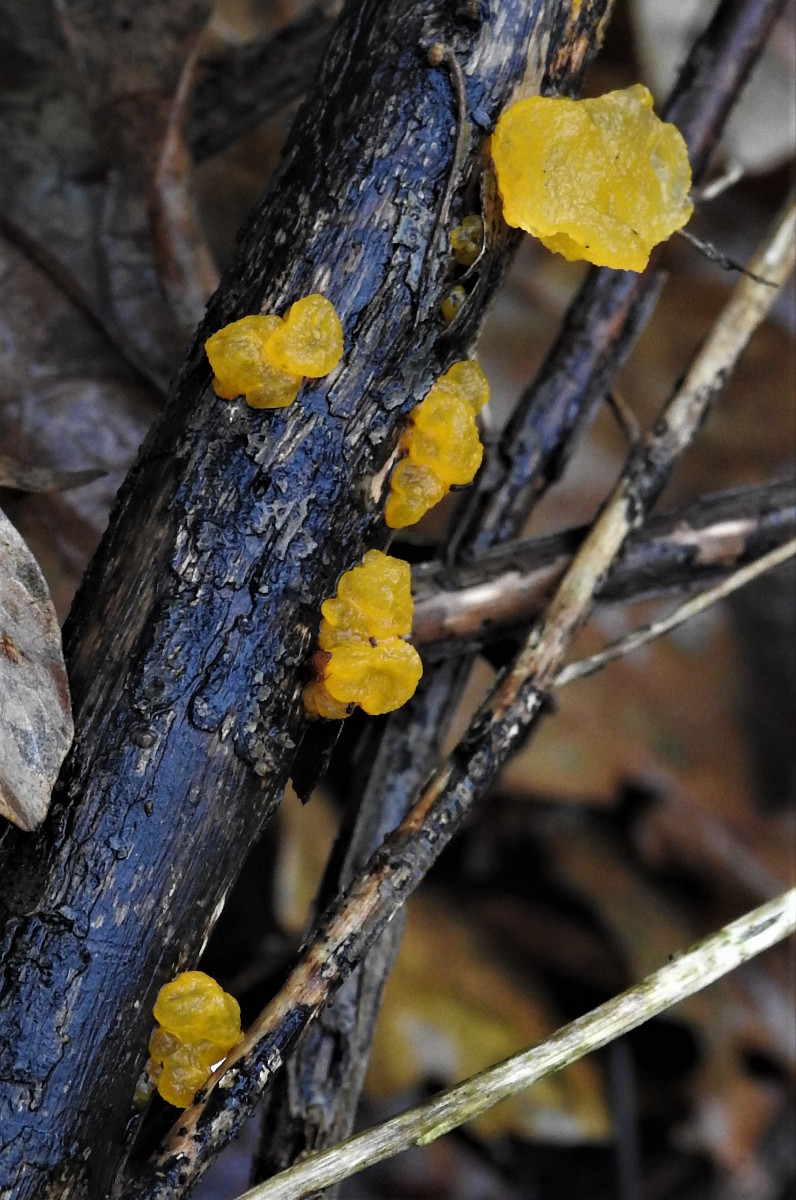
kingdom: Fungi
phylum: Basidiomycota
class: Tremellomycetes
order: Tremellales
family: Tremellaceae
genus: Tremella
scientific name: Tremella mesenterica
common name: gul bævresvamp
